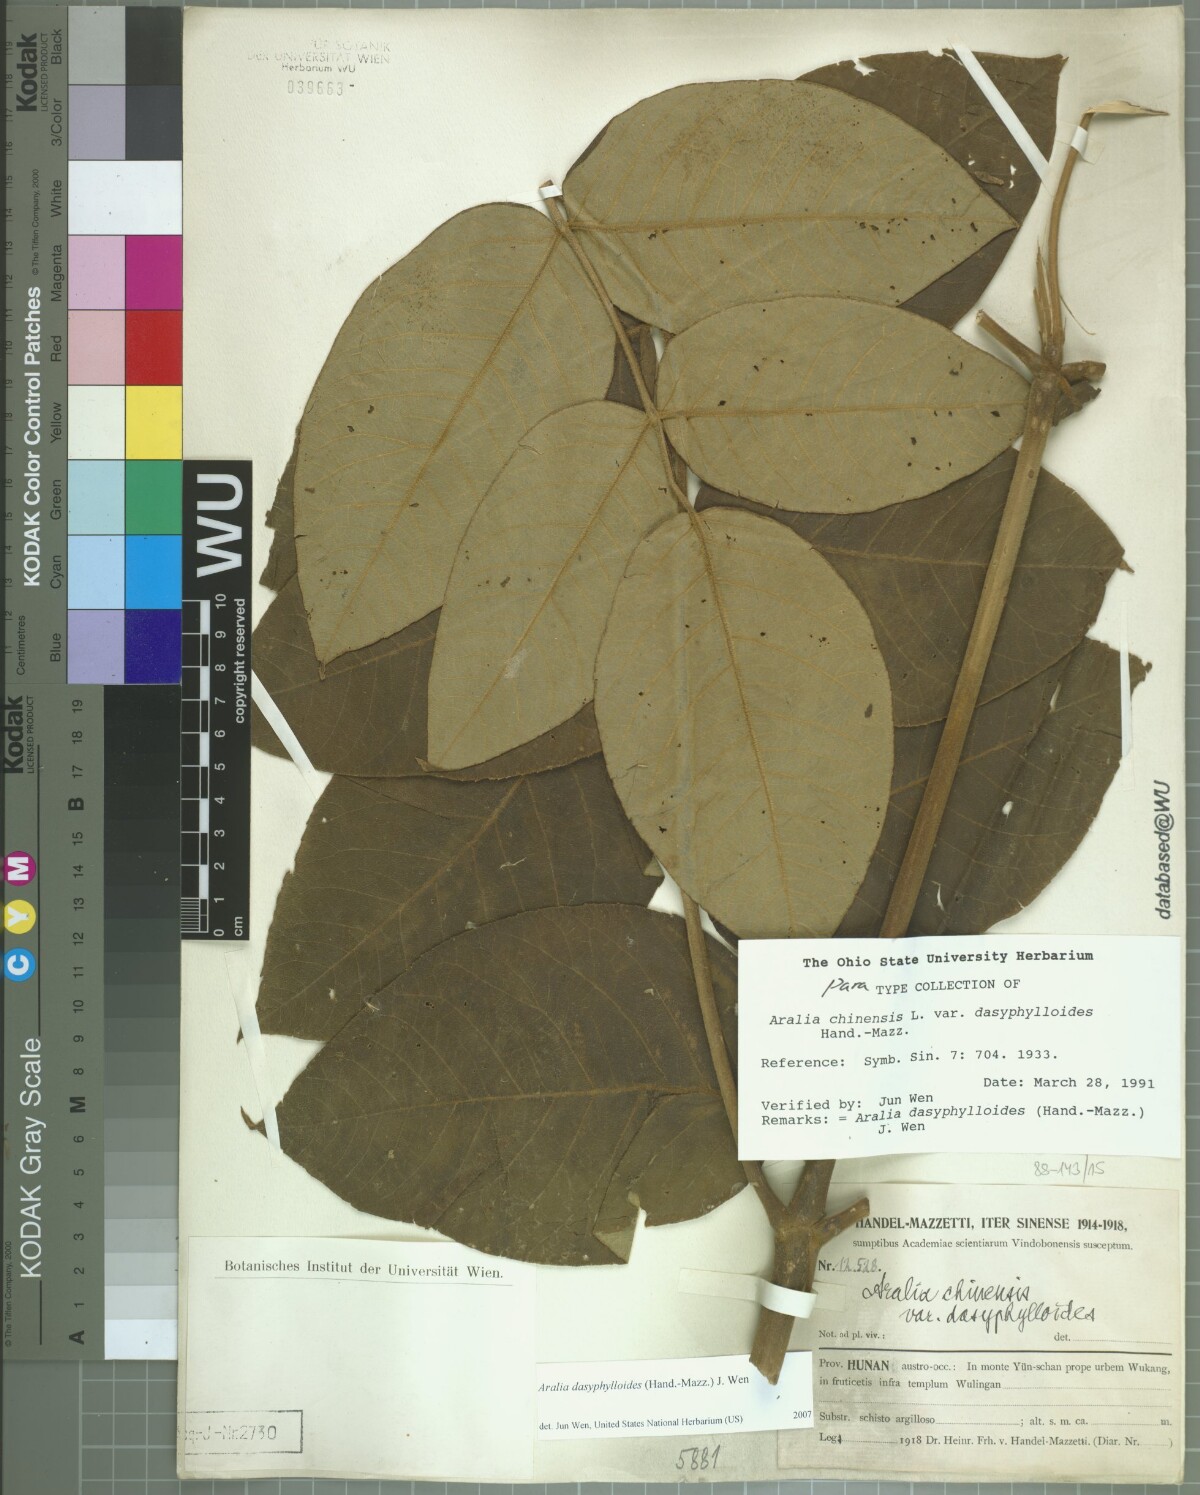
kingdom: Plantae
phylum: Tracheophyta
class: Magnoliopsida
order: Apiales
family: Araliaceae
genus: Aralia
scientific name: Aralia dasyphylloides
